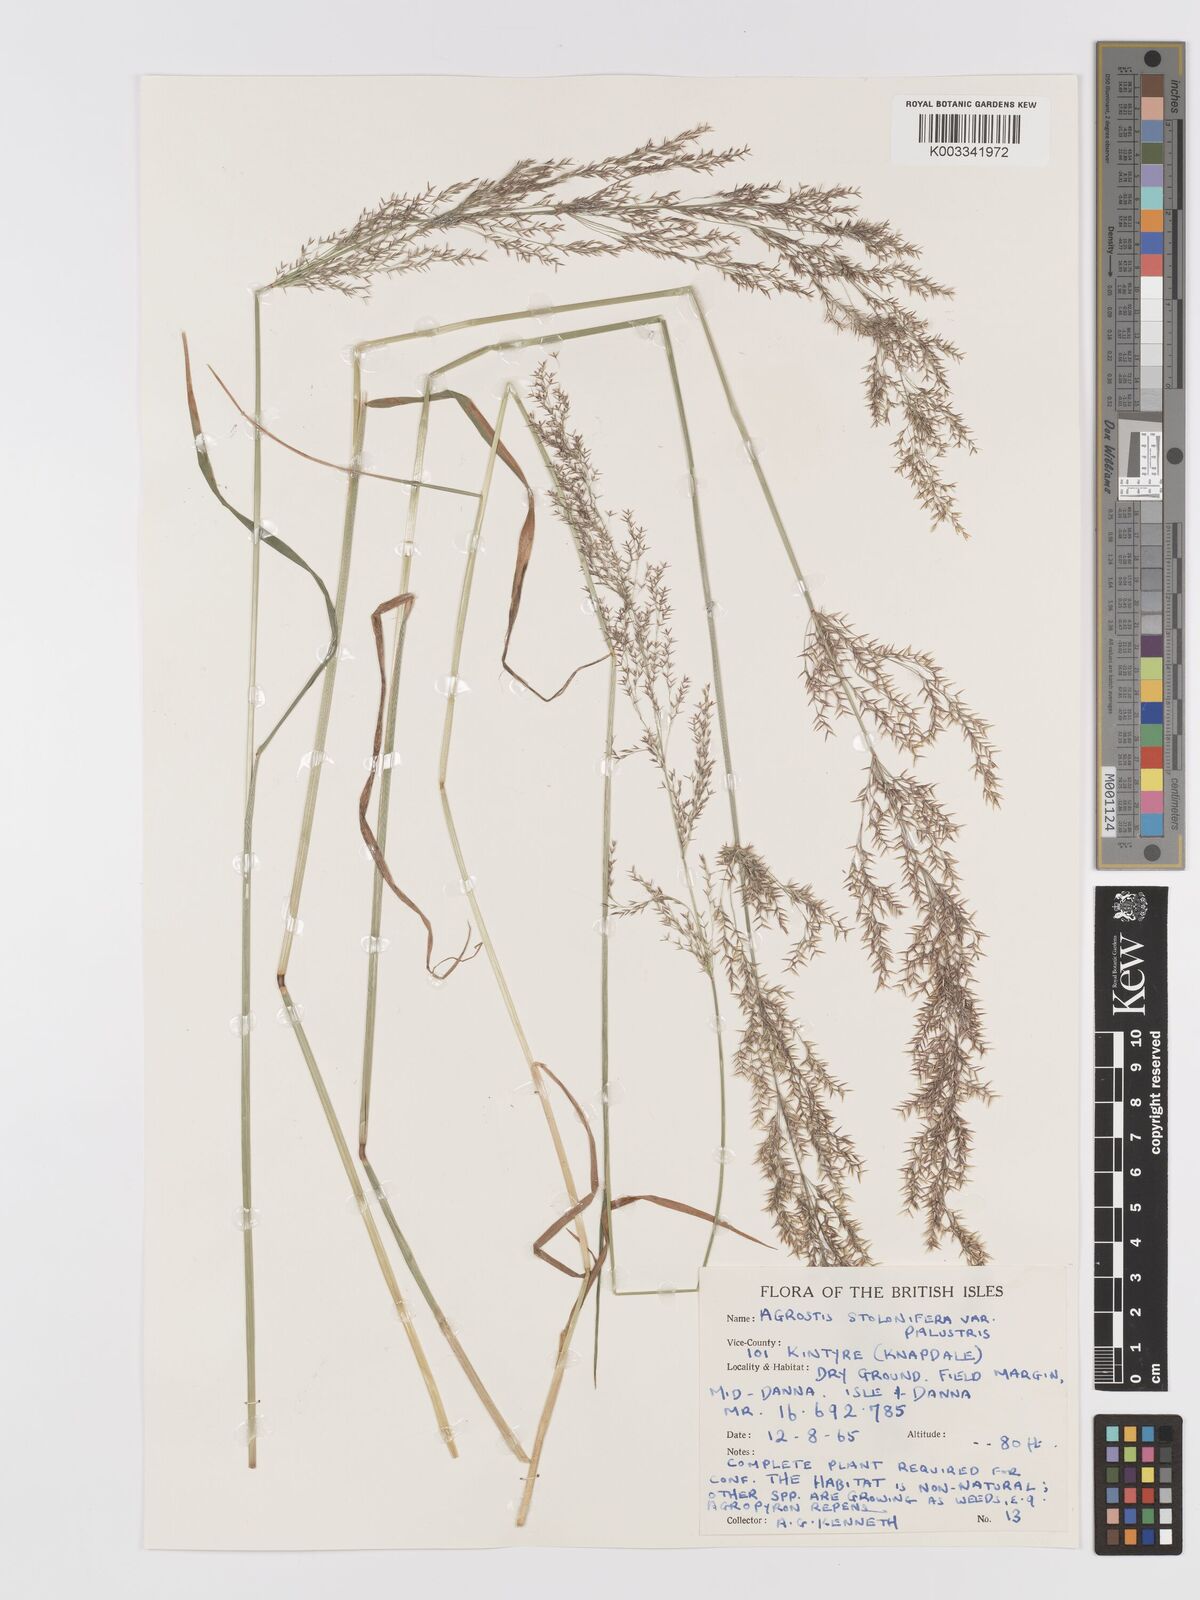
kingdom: Plantae
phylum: Tracheophyta
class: Liliopsida
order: Poales
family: Poaceae
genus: Agrostis
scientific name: Agrostis stolonifera
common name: Creeping bentgrass
